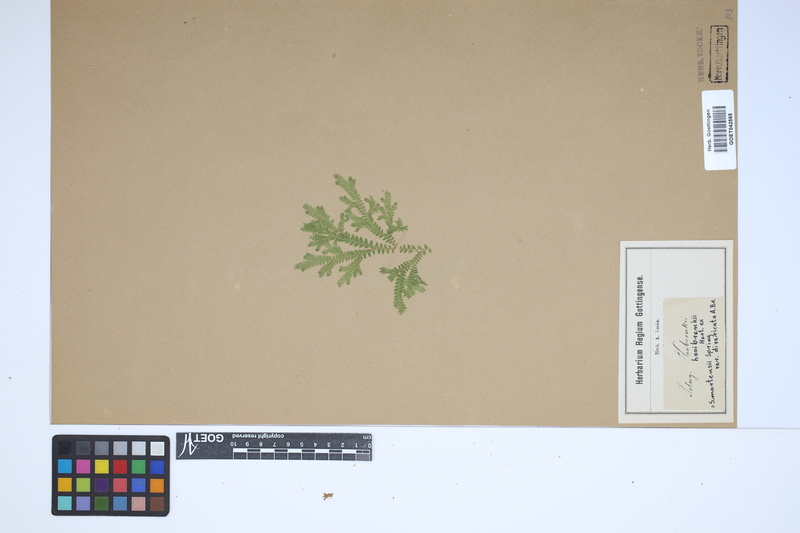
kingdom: Plantae
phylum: Tracheophyta
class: Lycopodiopsida
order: Selaginellales
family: Selaginellaceae
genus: Selaginella
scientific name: Selaginella martensii
